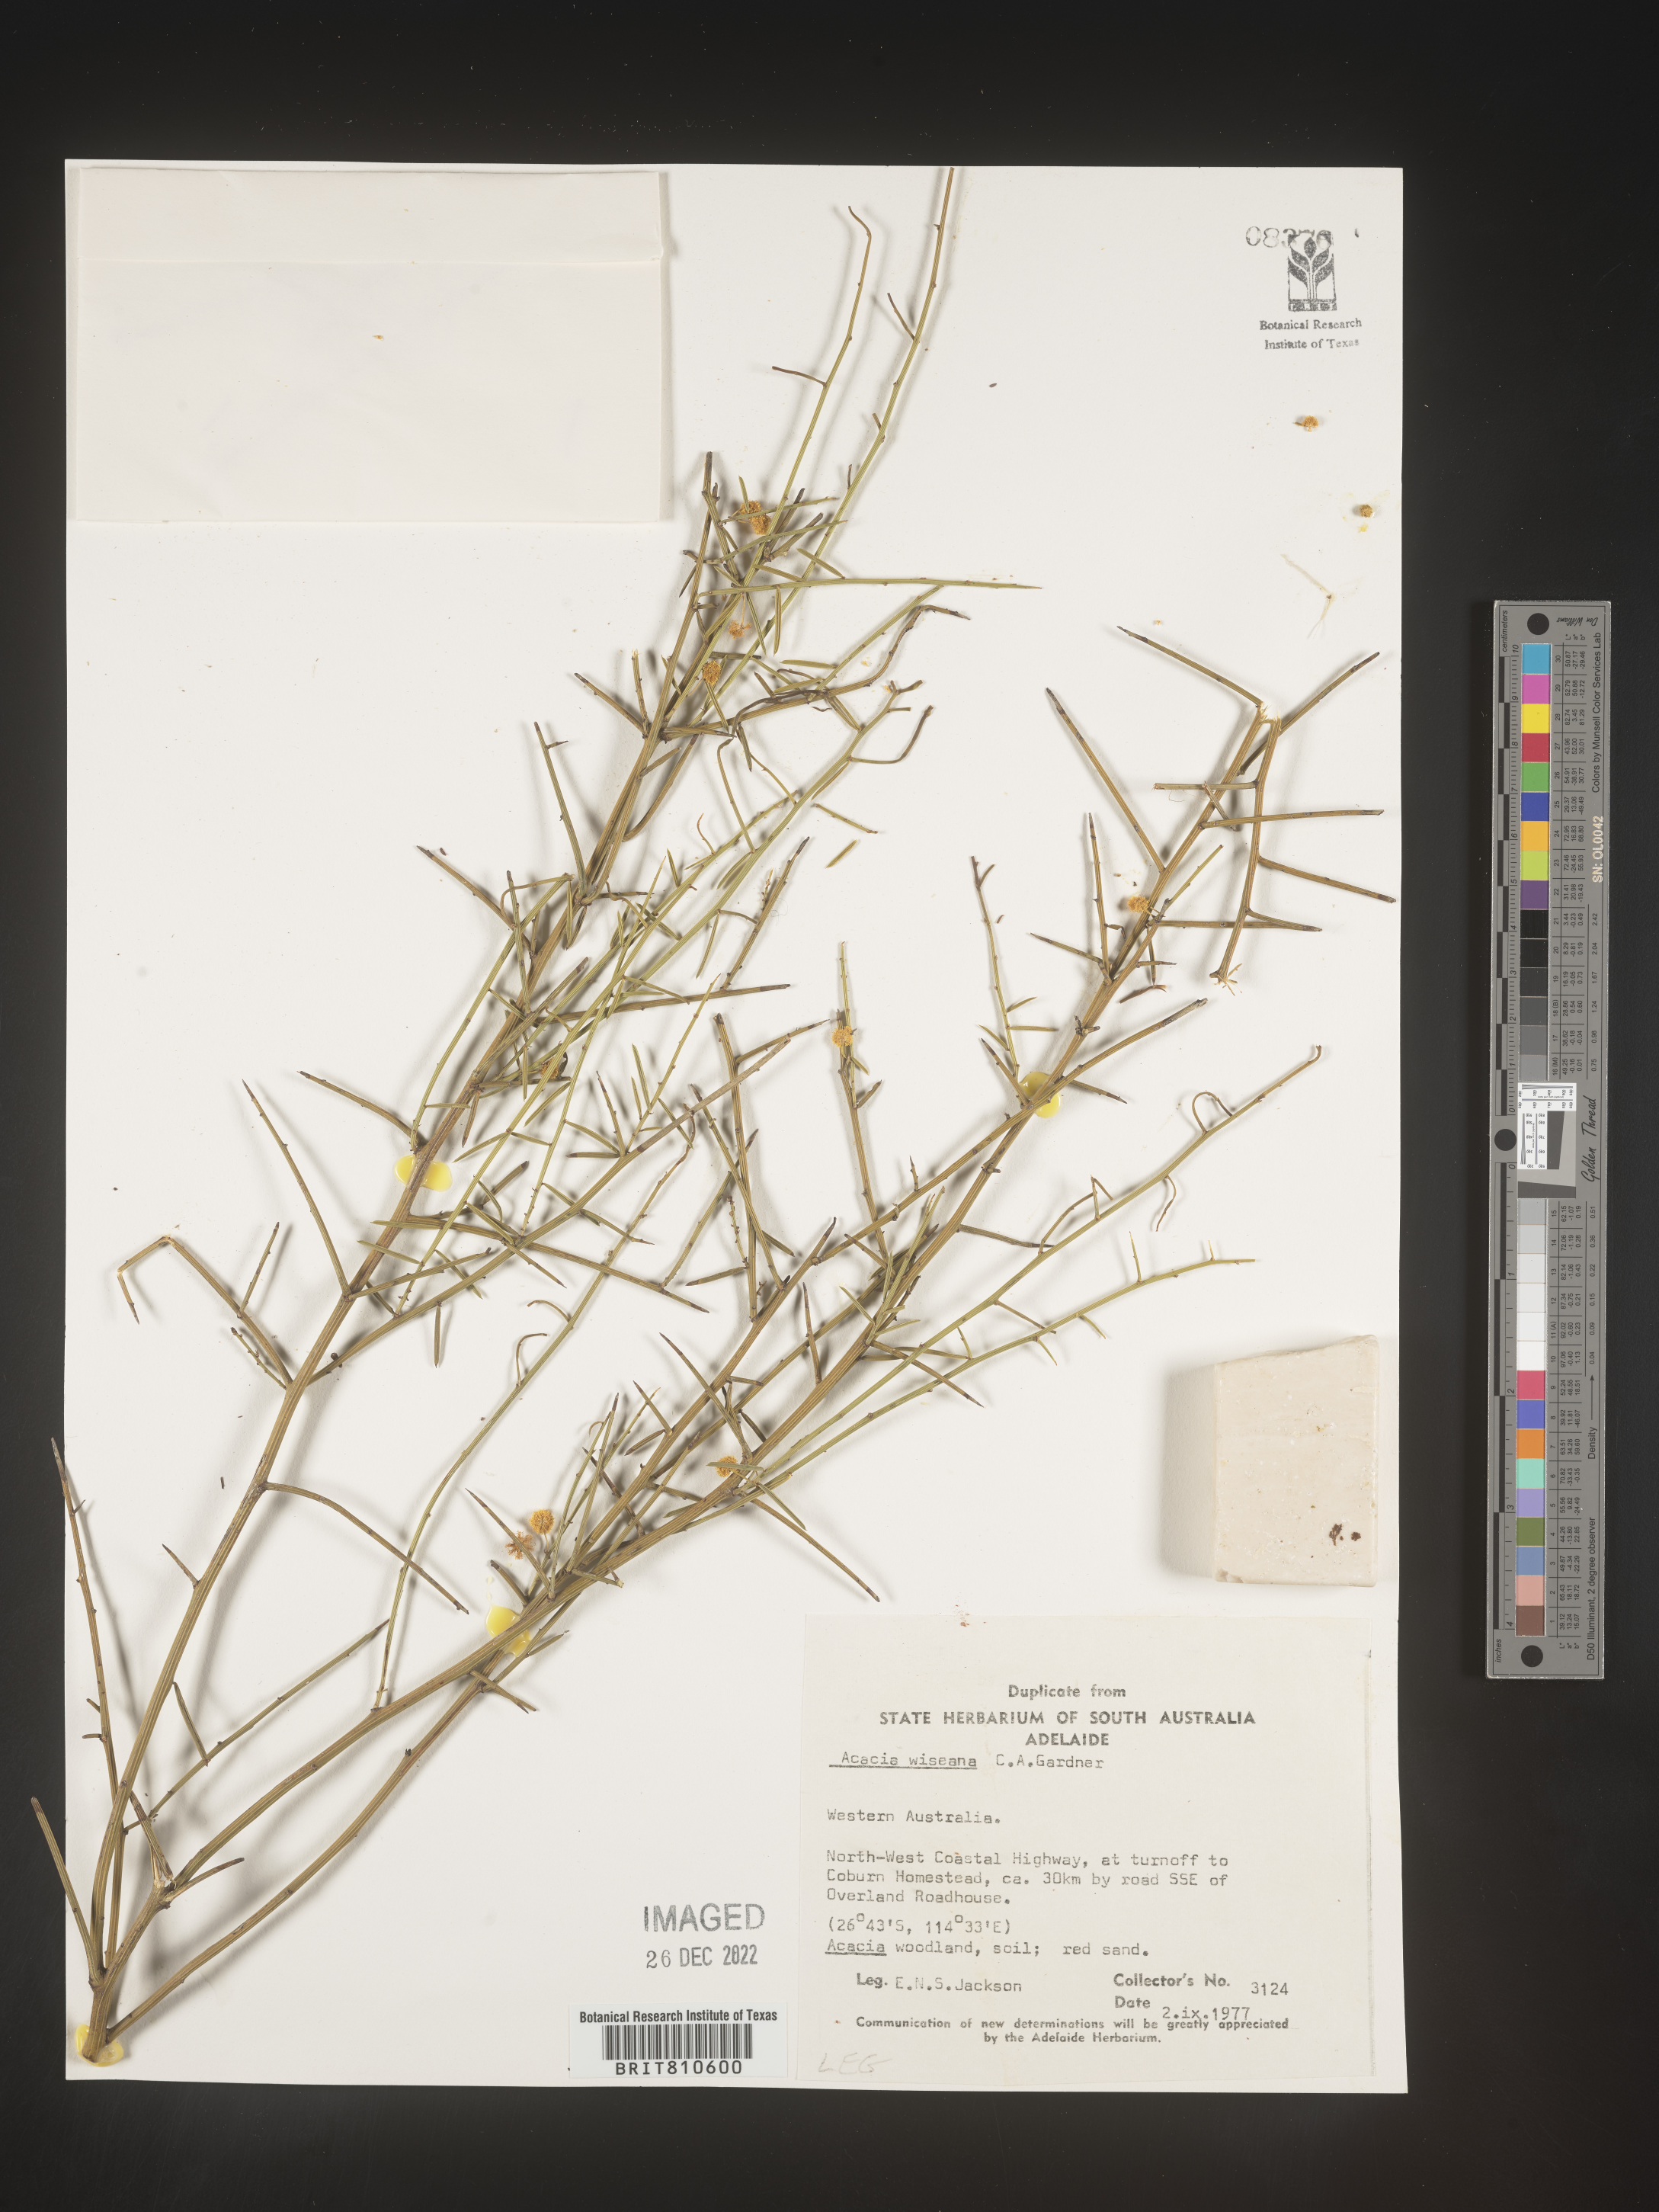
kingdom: Plantae
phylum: Tracheophyta
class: Magnoliopsida
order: Fabales
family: Fabaceae
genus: Acacia
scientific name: Acacia
